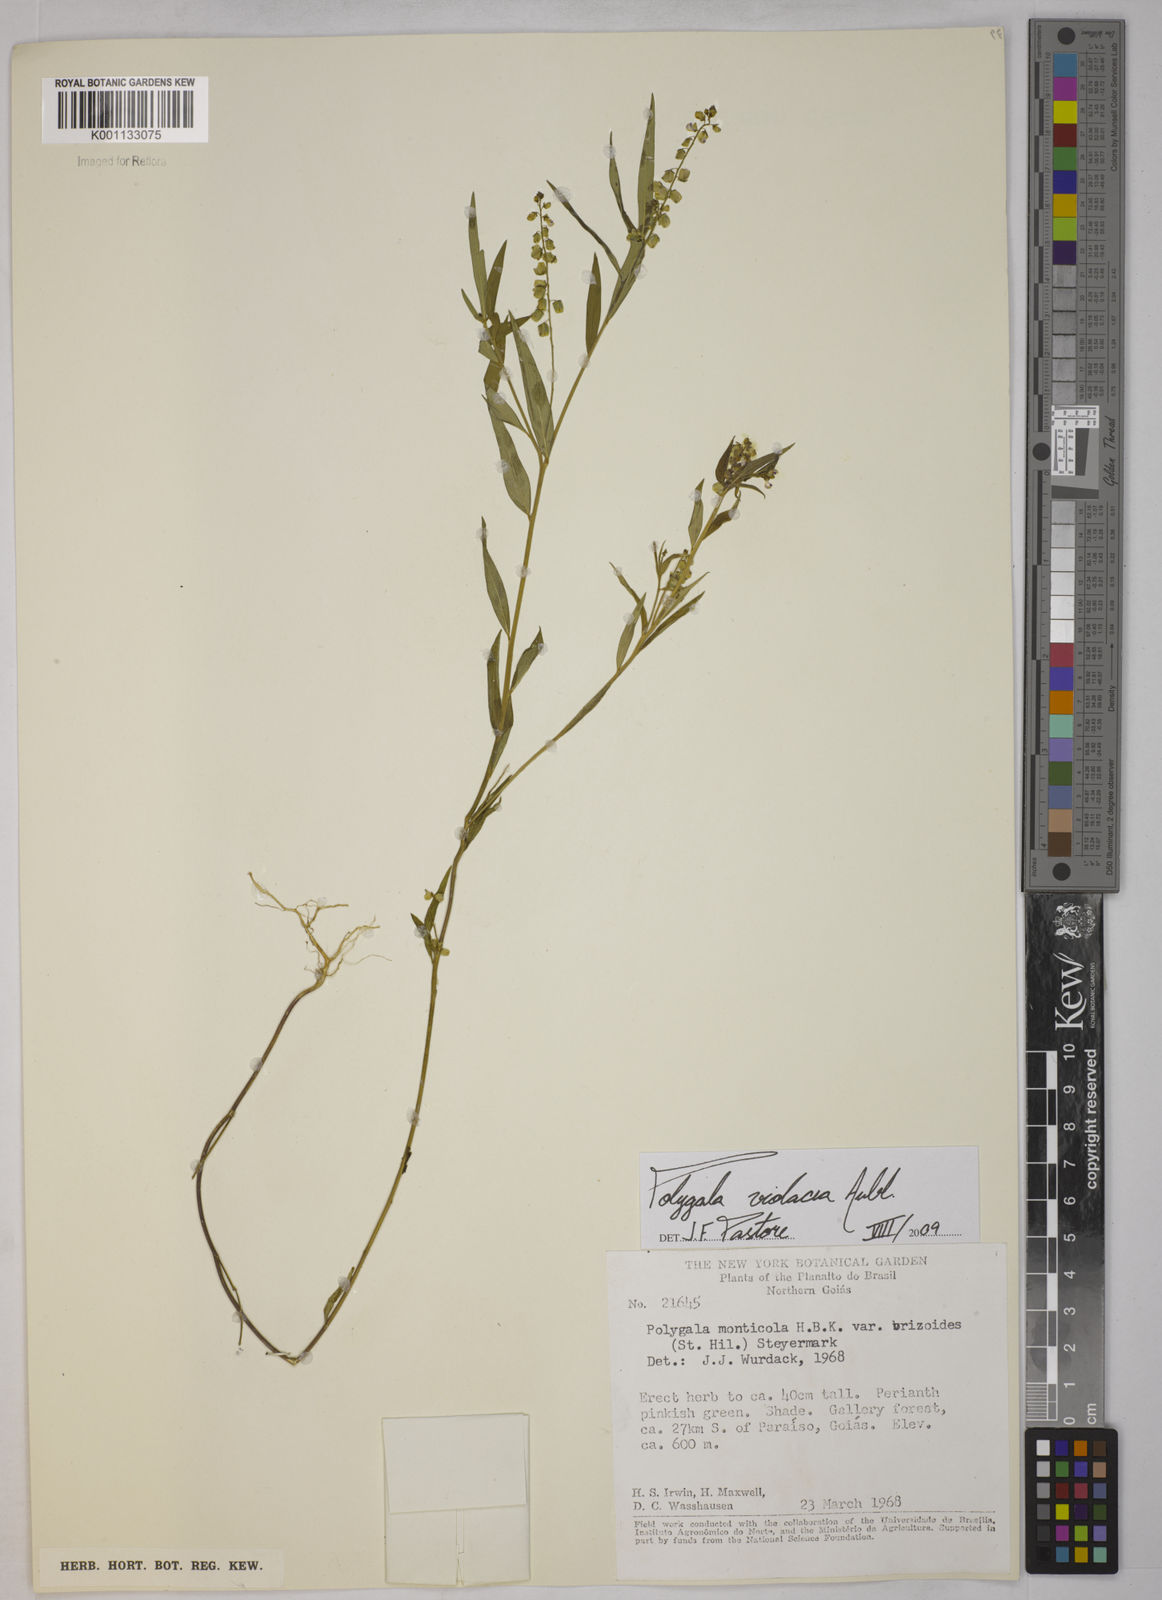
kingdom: Plantae
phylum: Tracheophyta
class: Magnoliopsida
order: Fabales
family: Polygalaceae
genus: Polygala
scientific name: Polygala
